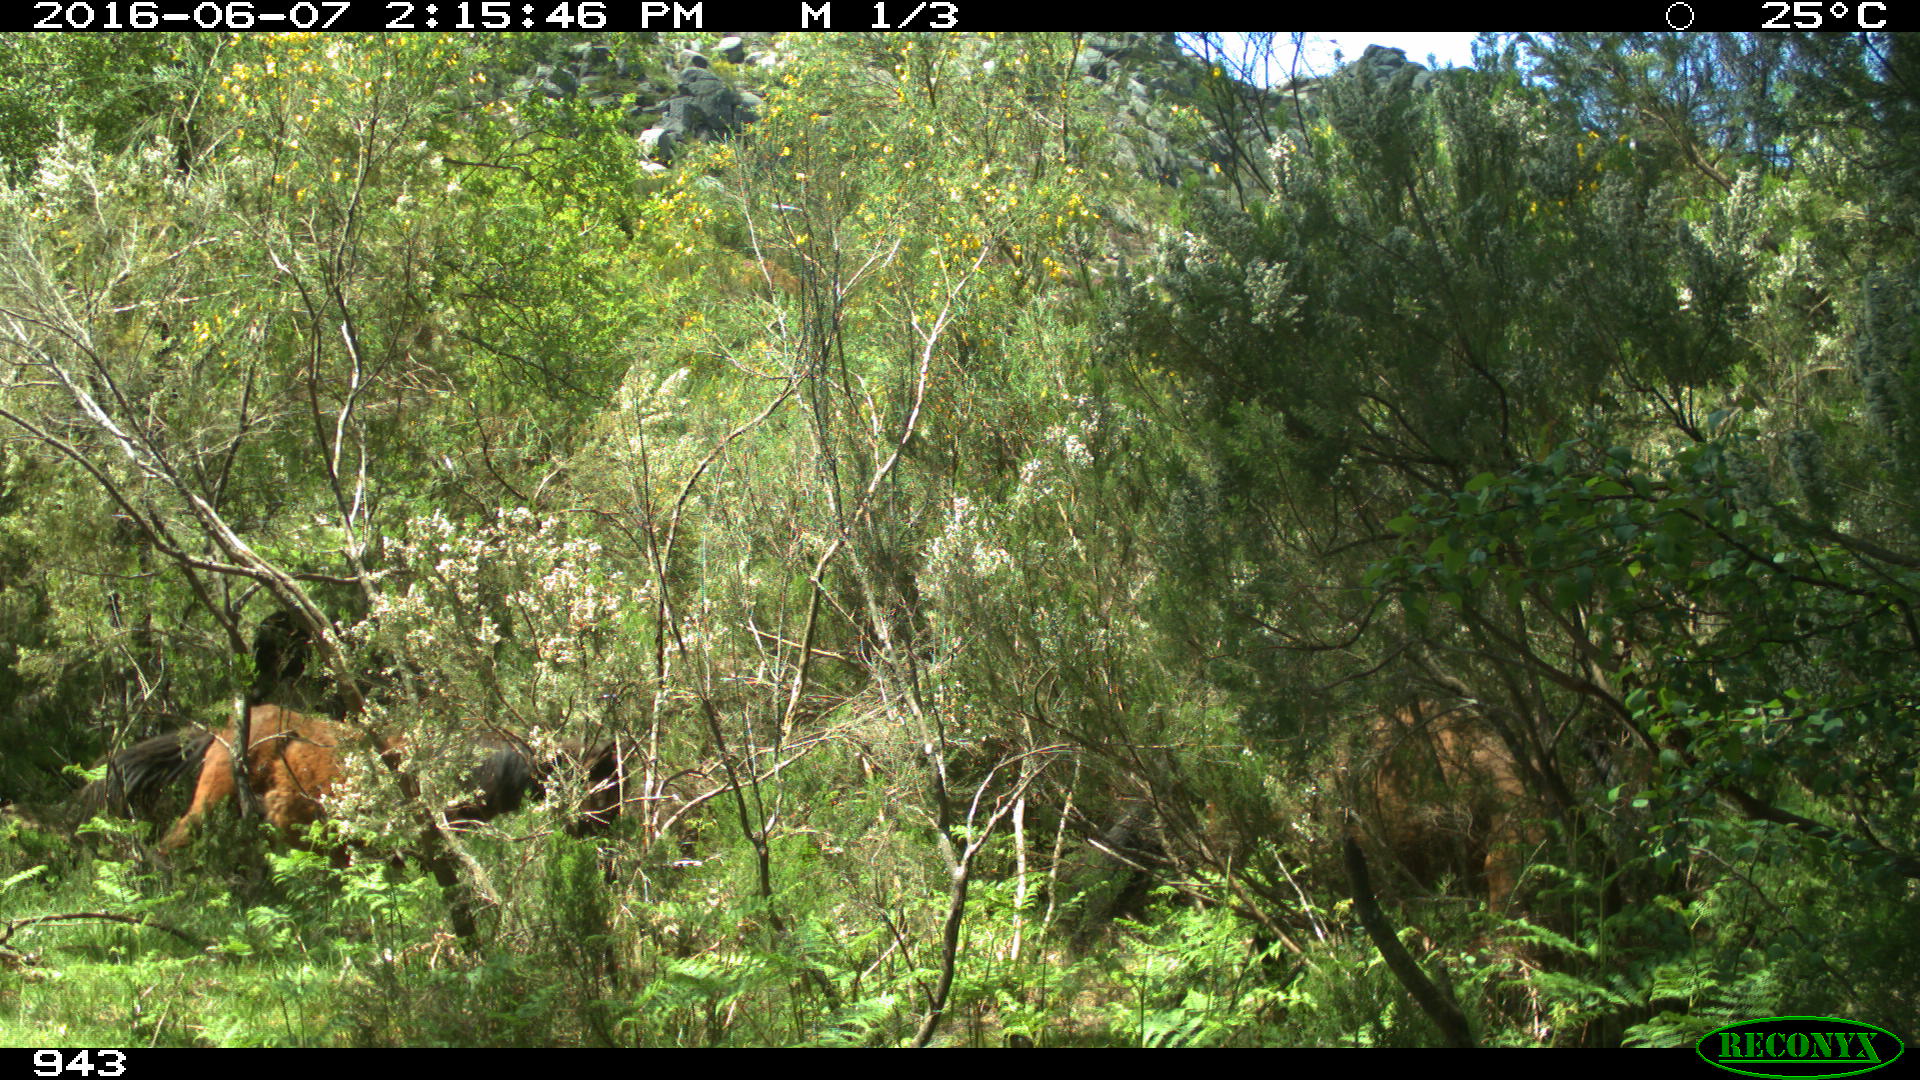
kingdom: Animalia
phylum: Chordata
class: Mammalia
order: Perissodactyla
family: Equidae
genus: Equus
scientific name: Equus caballus
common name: Horse
